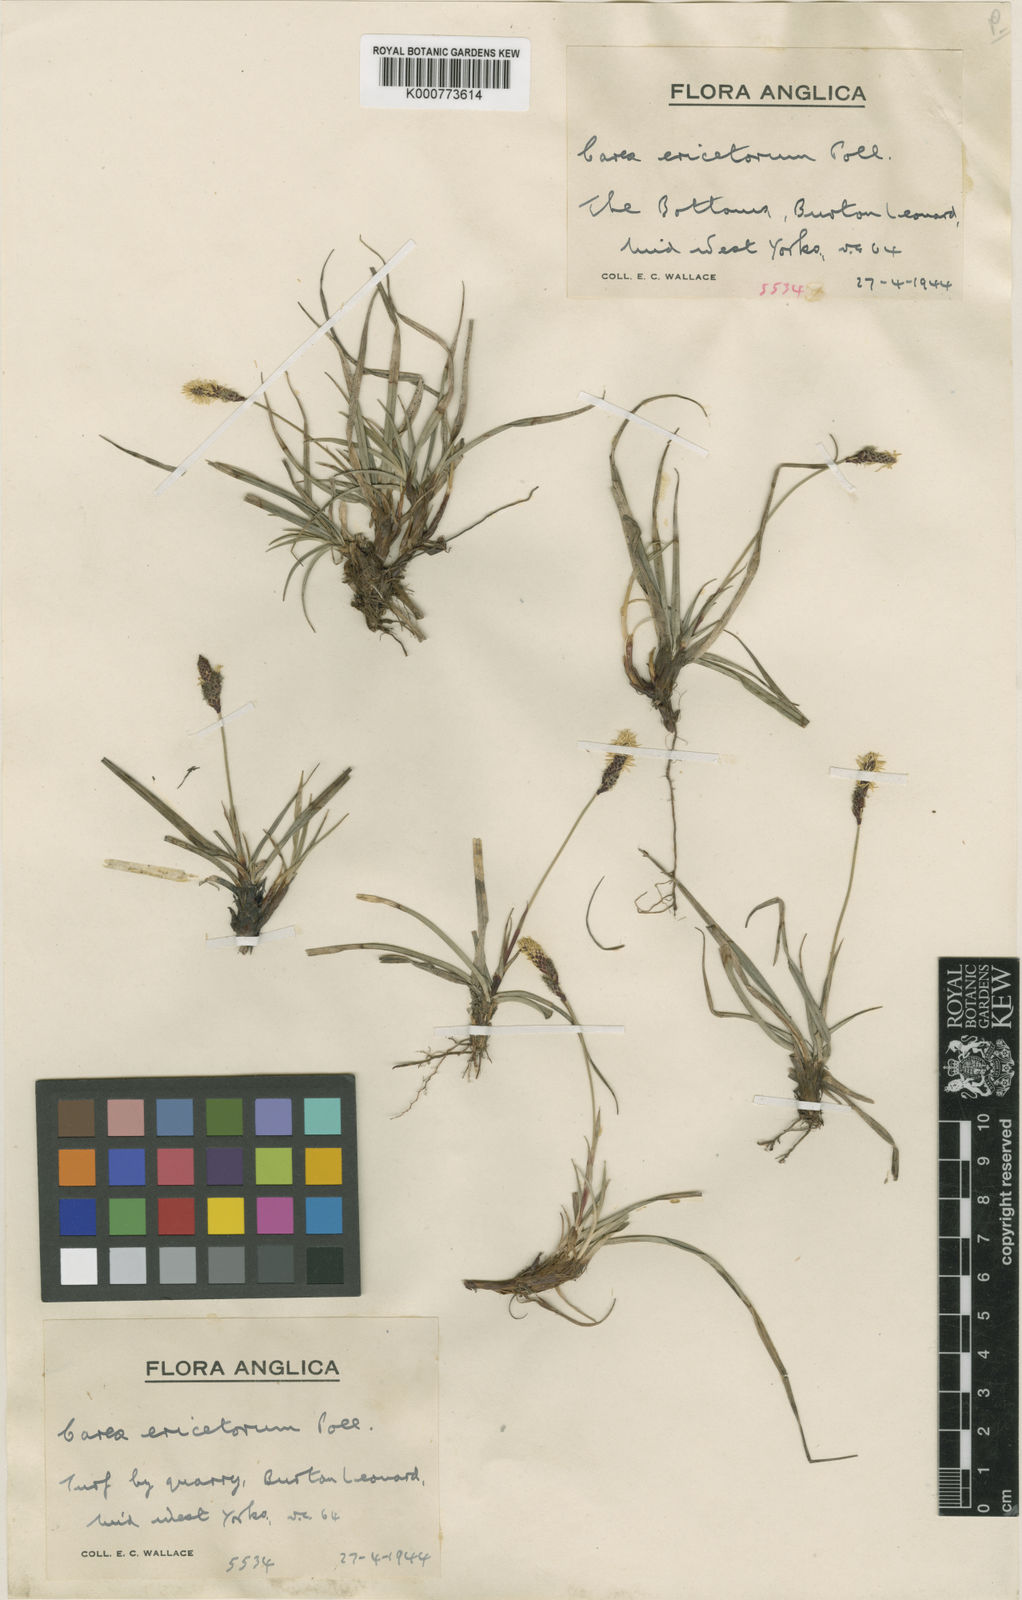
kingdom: Plantae
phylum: Tracheophyta
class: Liliopsida
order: Poales
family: Cyperaceae
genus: Carex
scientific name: Carex ericetorum
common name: Rare spring-sedge
